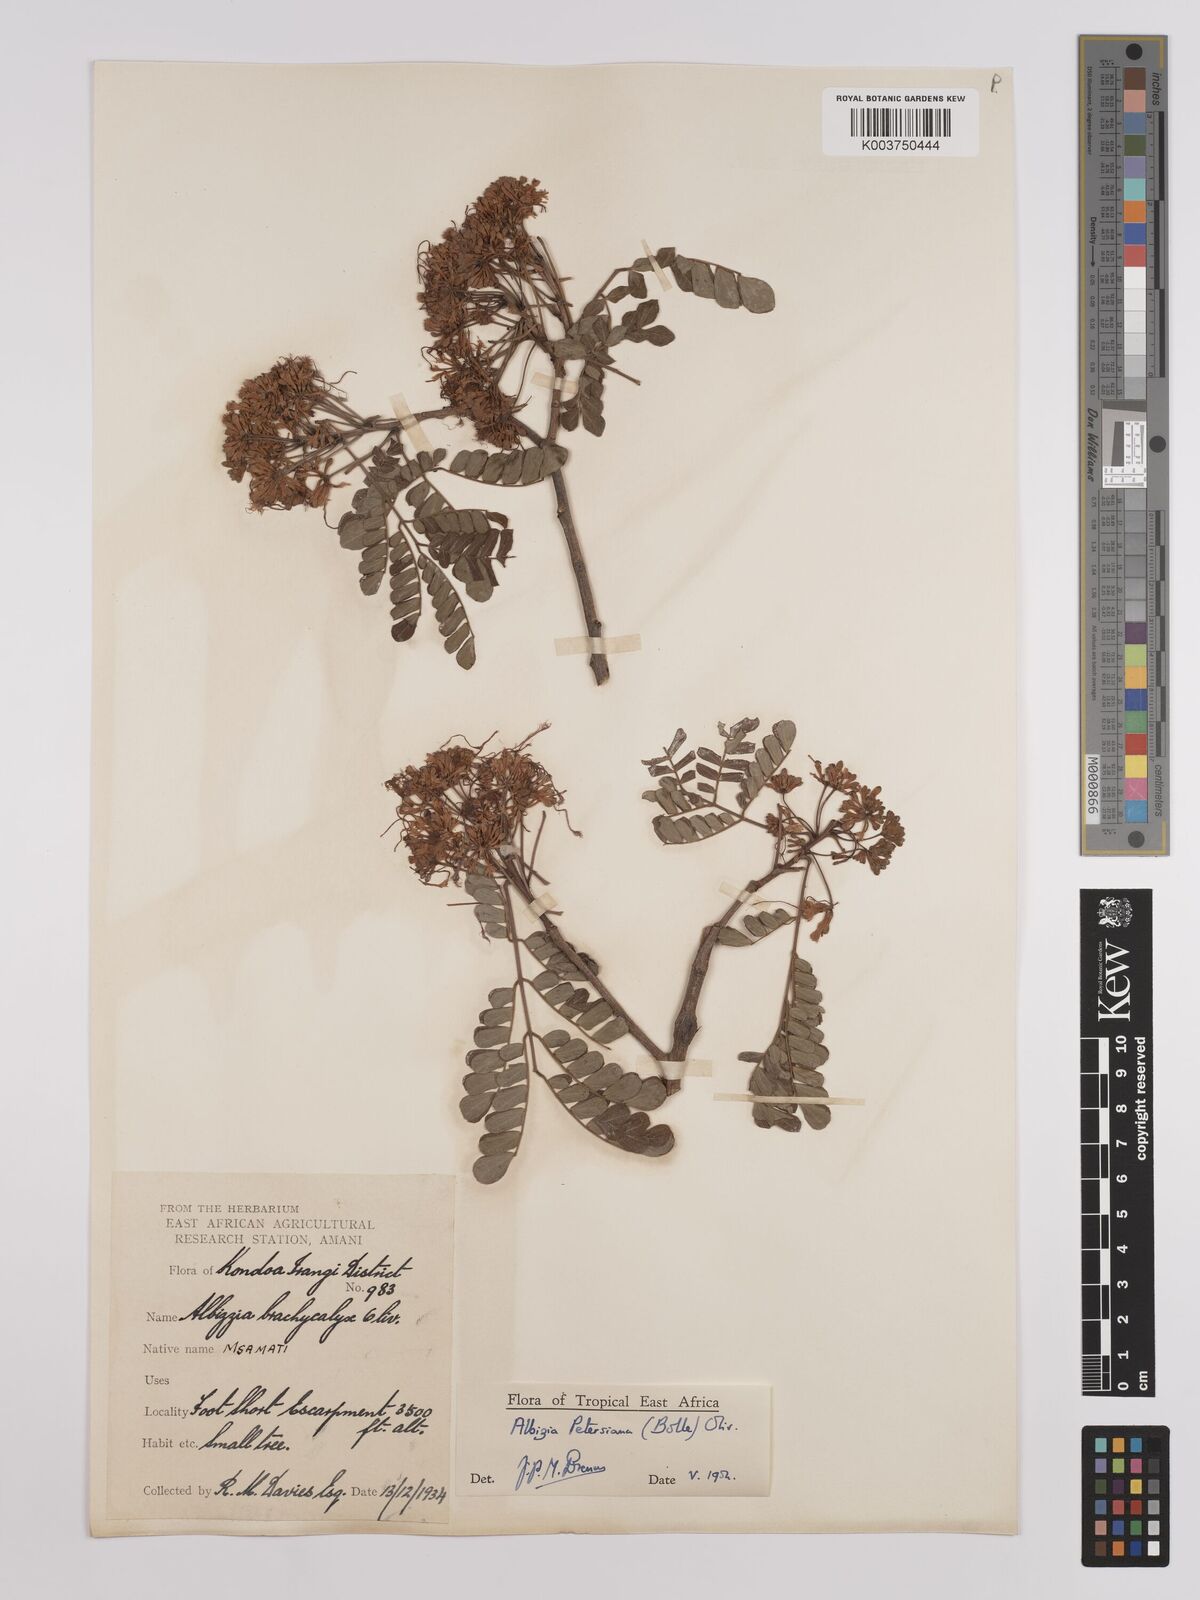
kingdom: Plantae
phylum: Tracheophyta
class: Magnoliopsida
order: Fabales
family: Fabaceae
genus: Albizia
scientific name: Albizia petersiana
